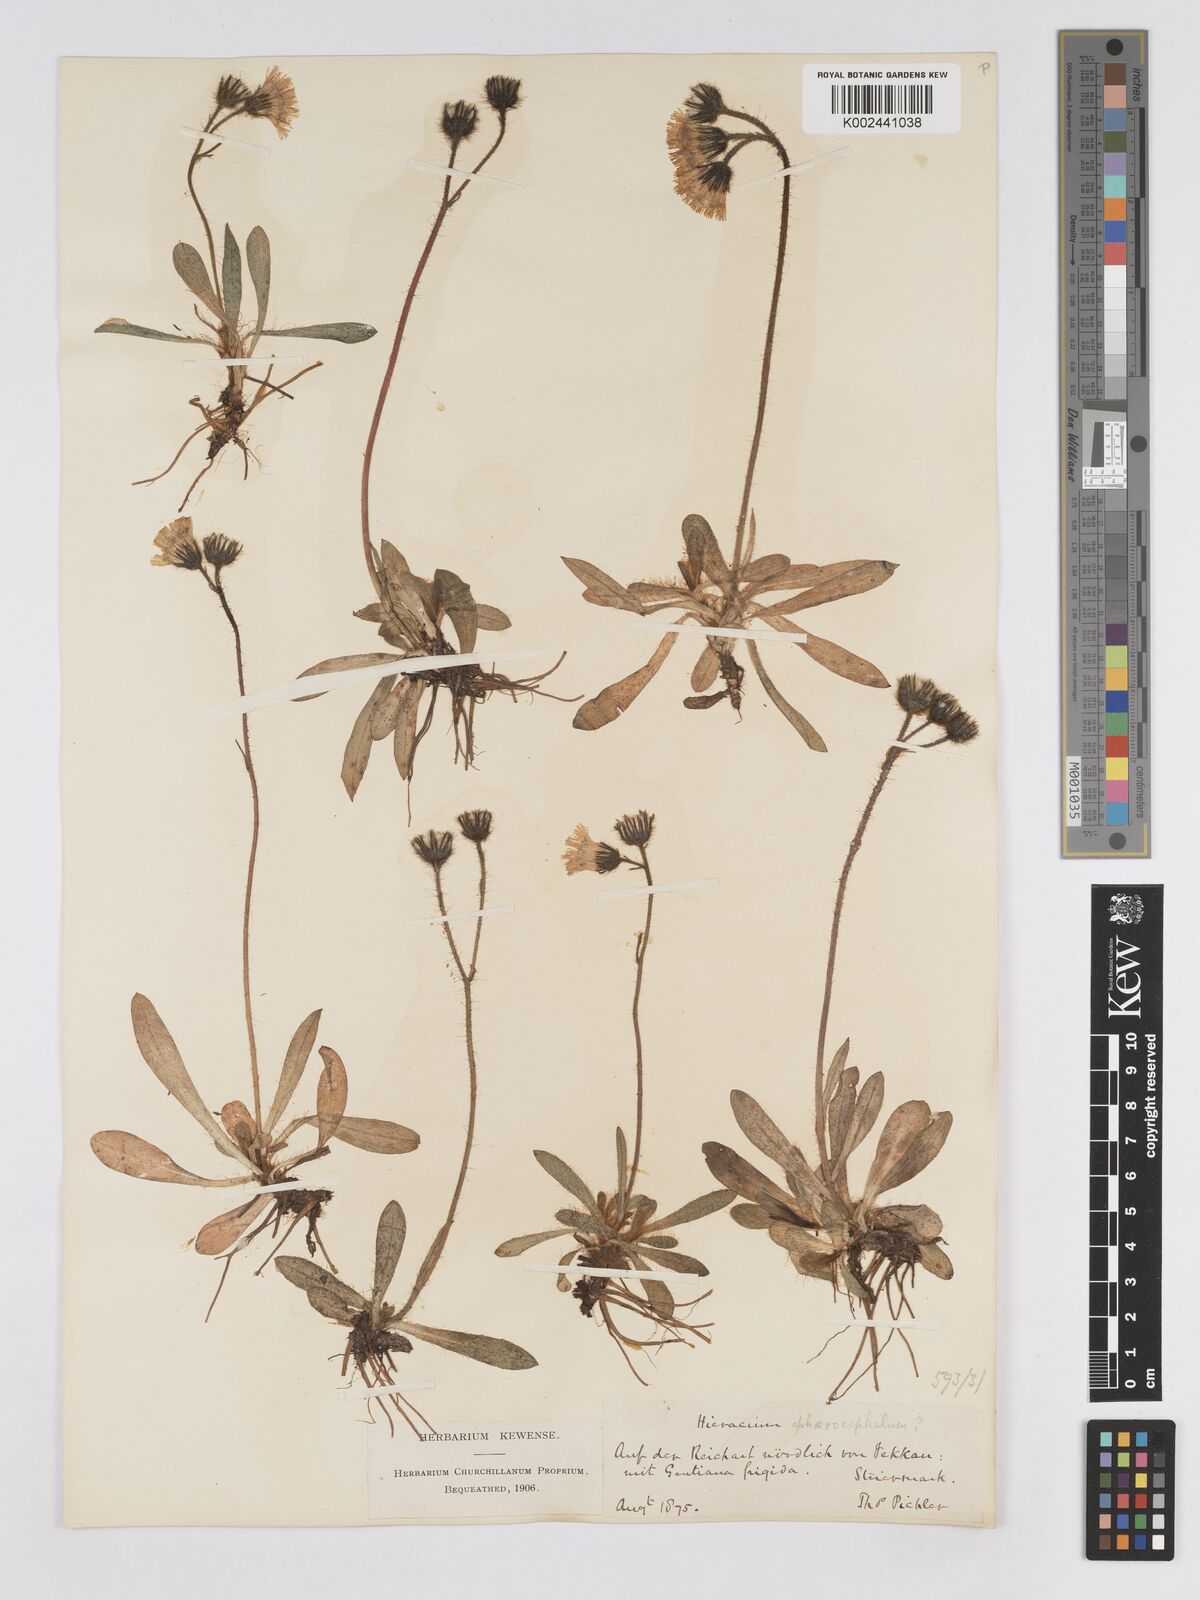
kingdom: Plantae
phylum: Tracheophyta
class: Magnoliopsida
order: Asterales
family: Asteraceae
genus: Pilosella
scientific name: Pilosella sphaerocephala
